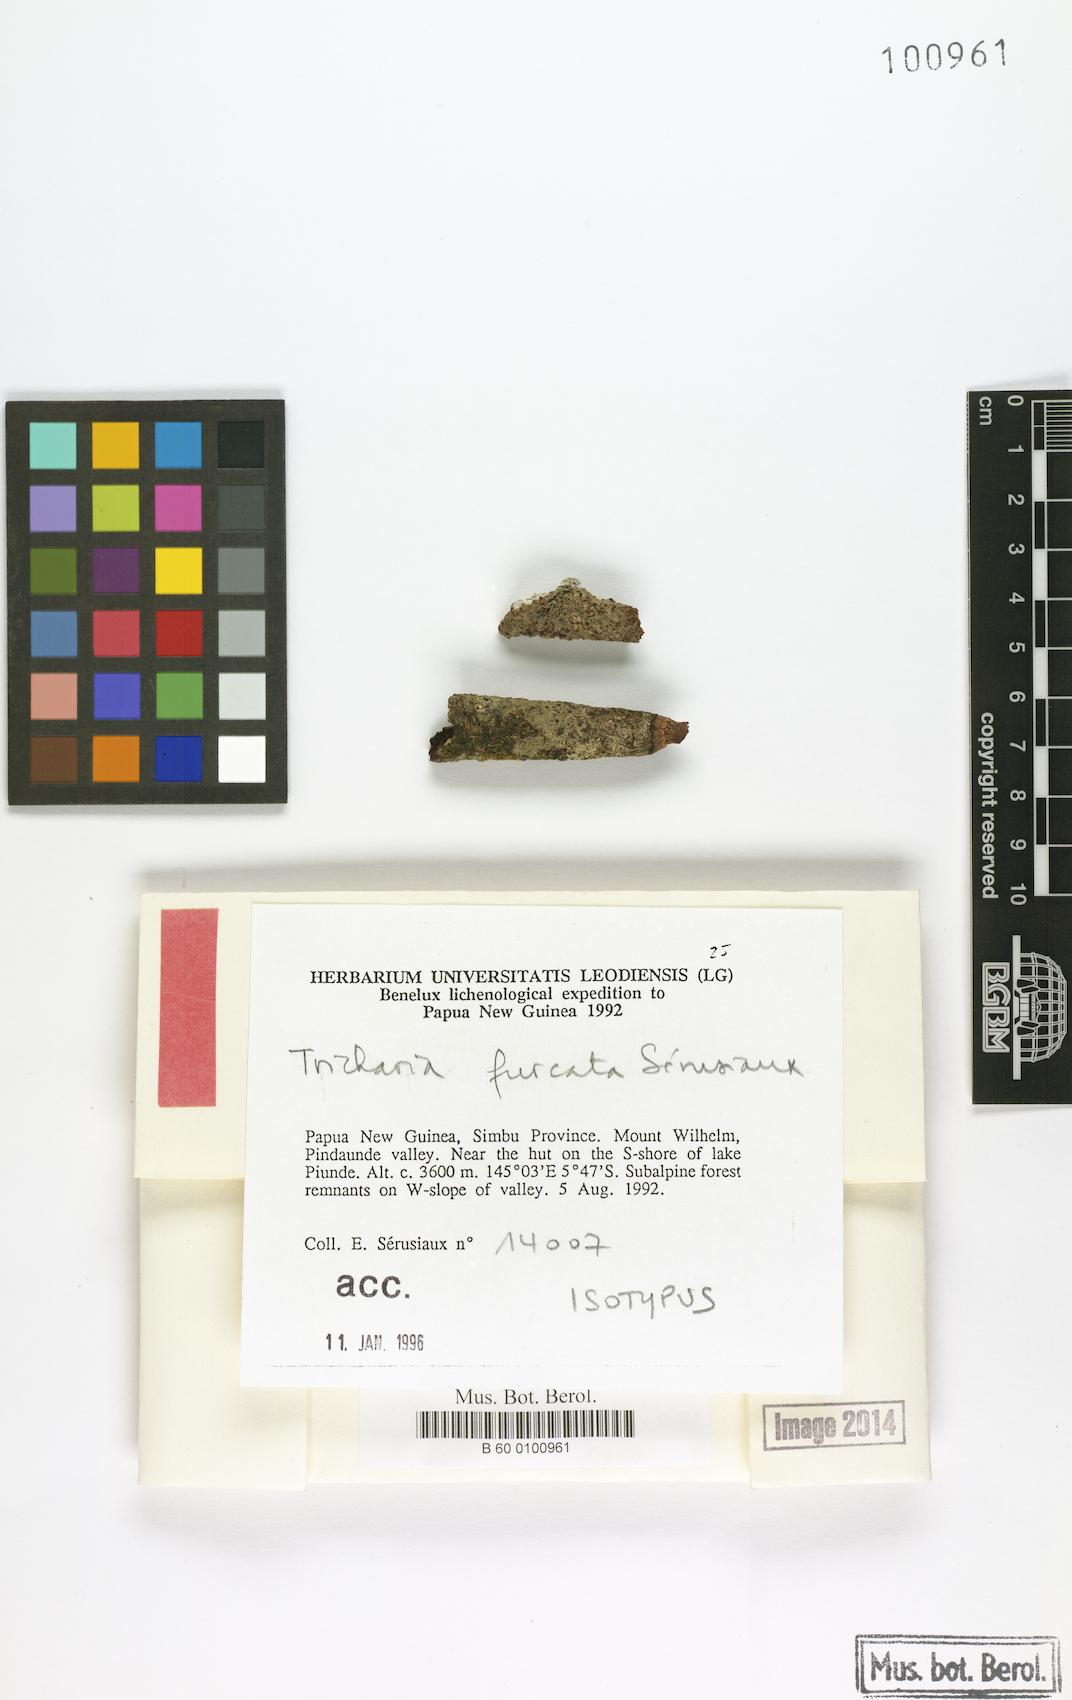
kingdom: Fungi
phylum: Ascomycota
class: Lecanoromycetes
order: Ostropales
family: Gomphillaceae
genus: Tricharia
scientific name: Tricharia
